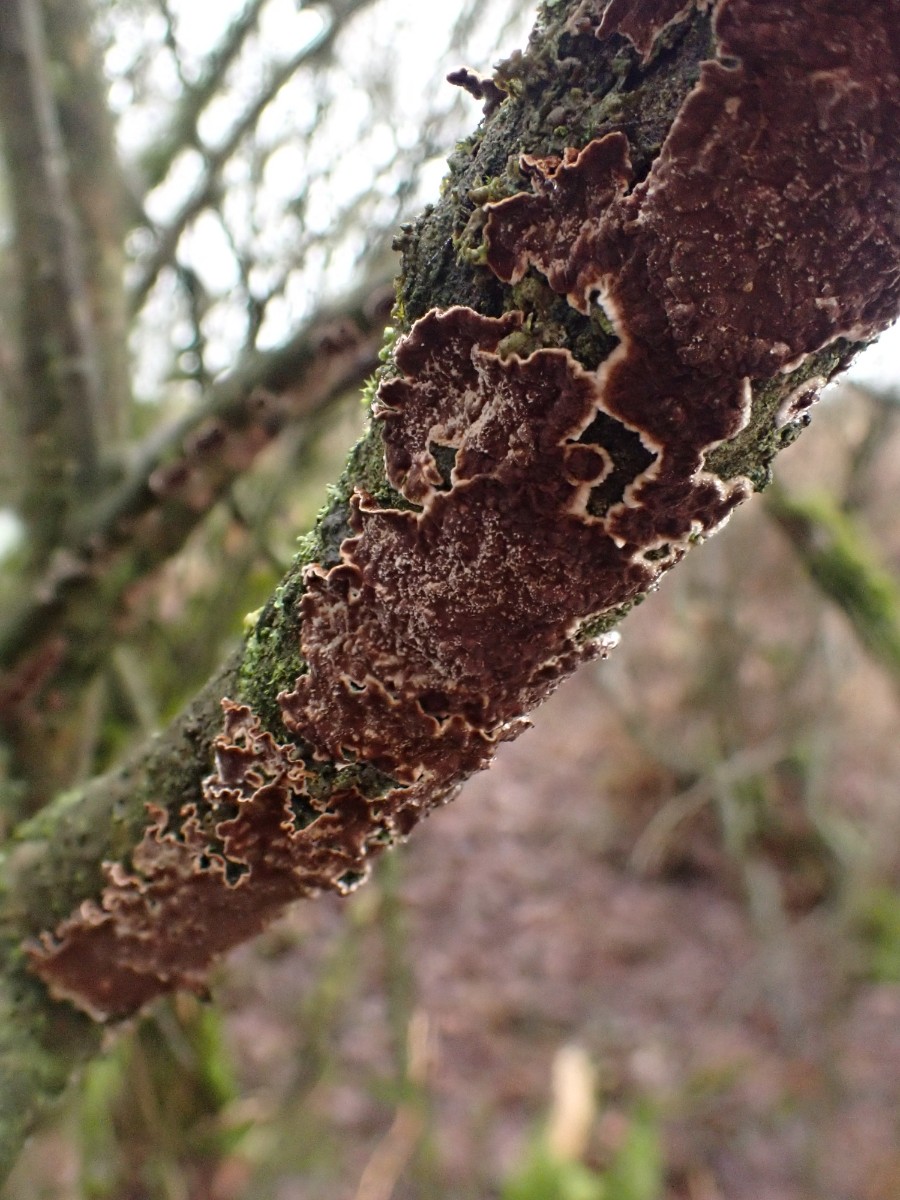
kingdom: Fungi
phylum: Basidiomycota
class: Agaricomycetes
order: Hymenochaetales
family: Hymenochaetaceae
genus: Hydnoporia
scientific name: Hydnoporia tabacina
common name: tobaksbrun ruslædersvamp
